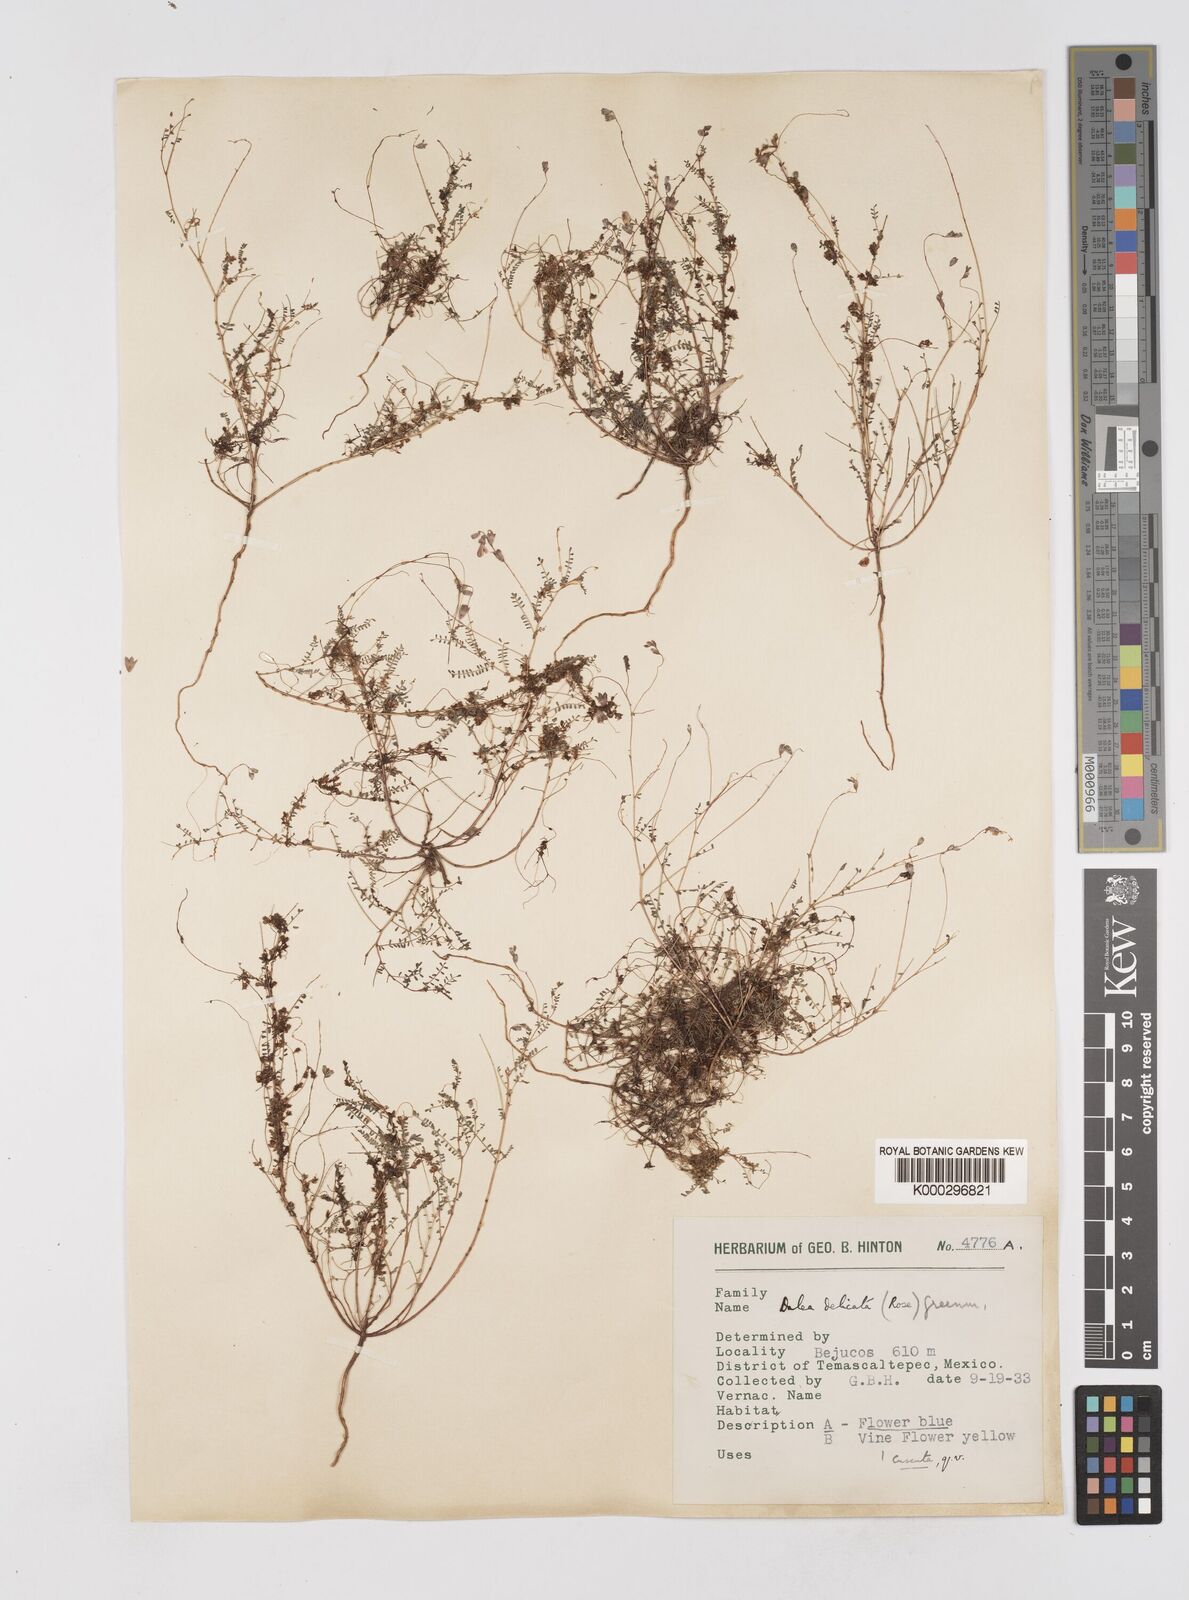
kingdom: Plantae
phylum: Tracheophyta
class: Magnoliopsida
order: Fabales
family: Fabaceae
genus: Marina
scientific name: Marina gracilis
